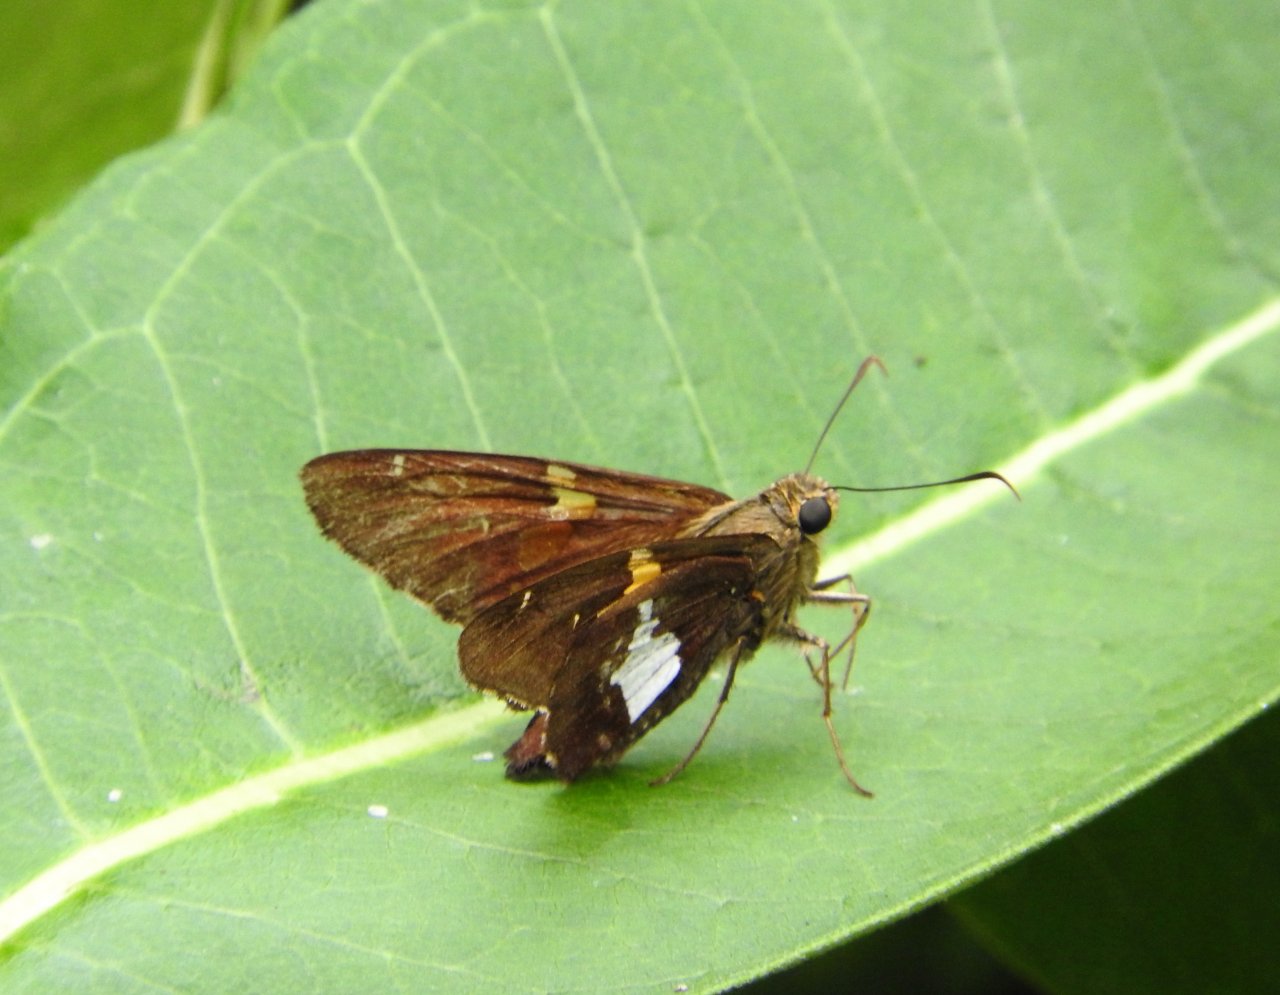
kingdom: Animalia
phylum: Arthropoda
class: Insecta
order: Lepidoptera
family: Hesperiidae
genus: Epargyreus
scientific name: Epargyreus clarus
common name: Silver-spotted Skipper
